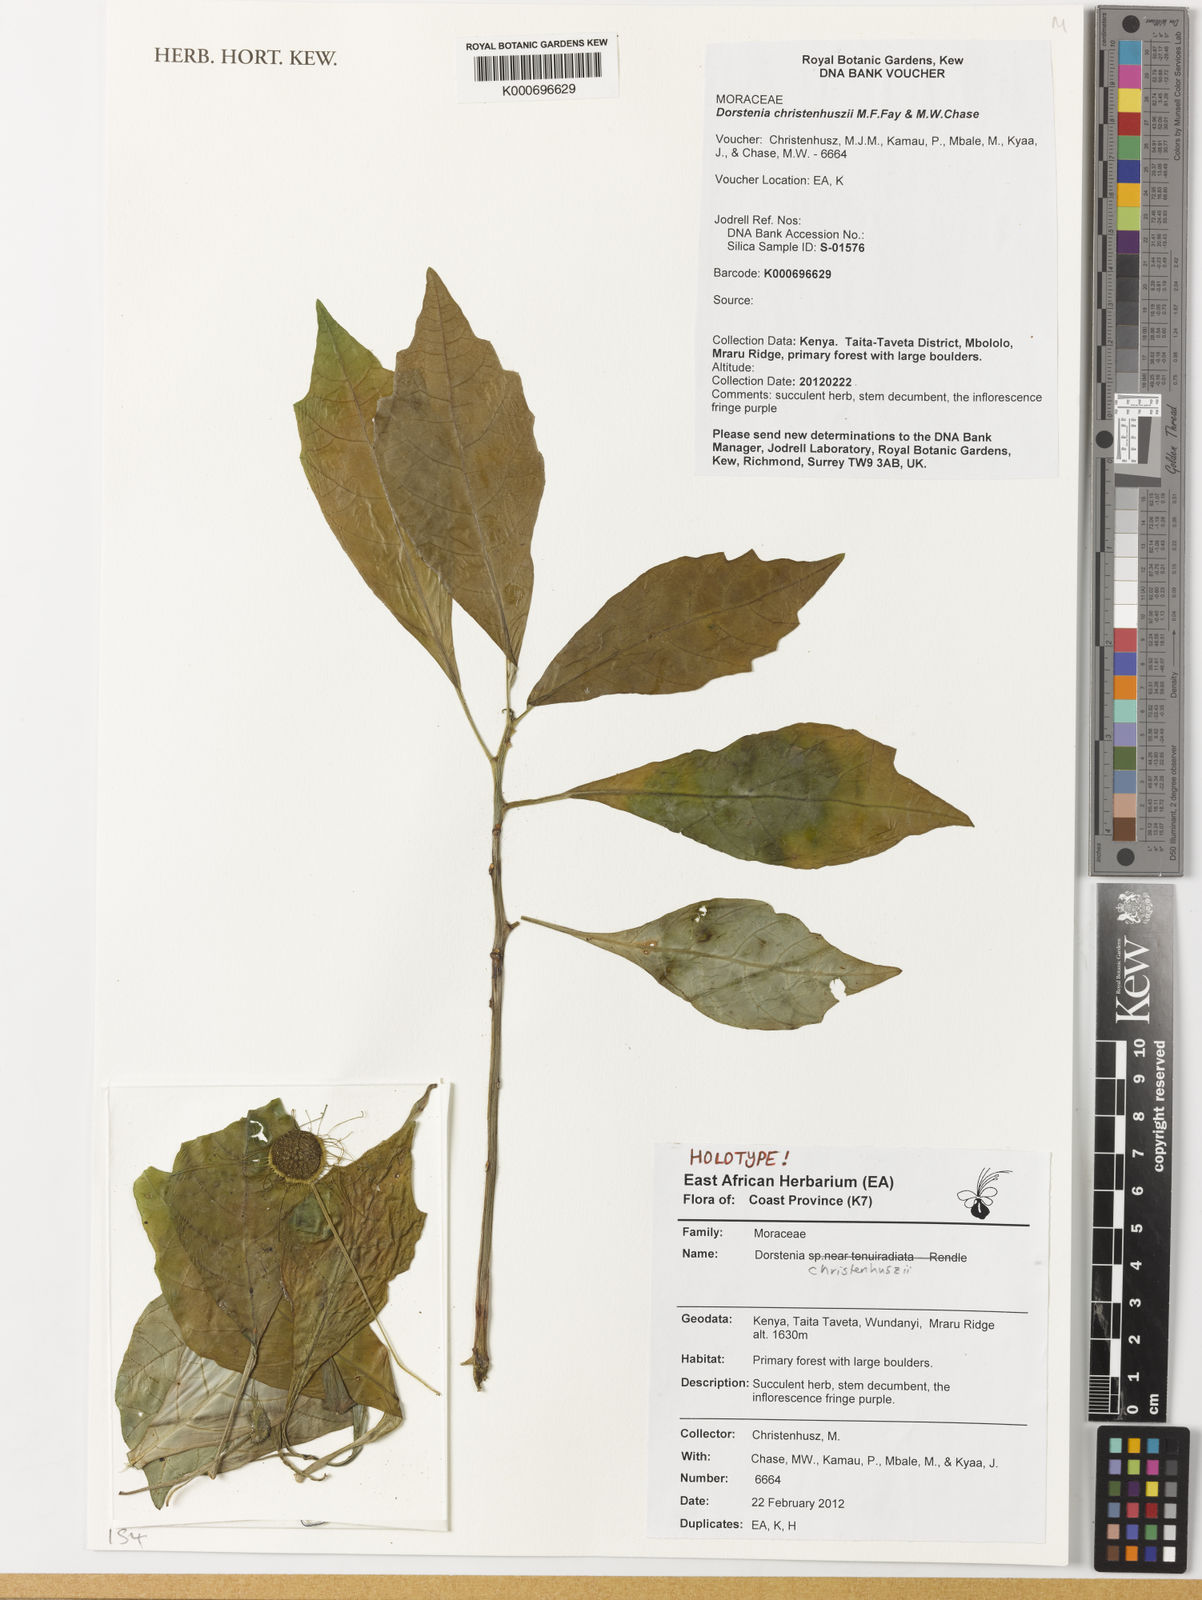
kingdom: Plantae
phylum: Tracheophyta
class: Magnoliopsida
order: Rosales
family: Moraceae
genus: Dorstenia
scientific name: Dorstenia christenhuszii
